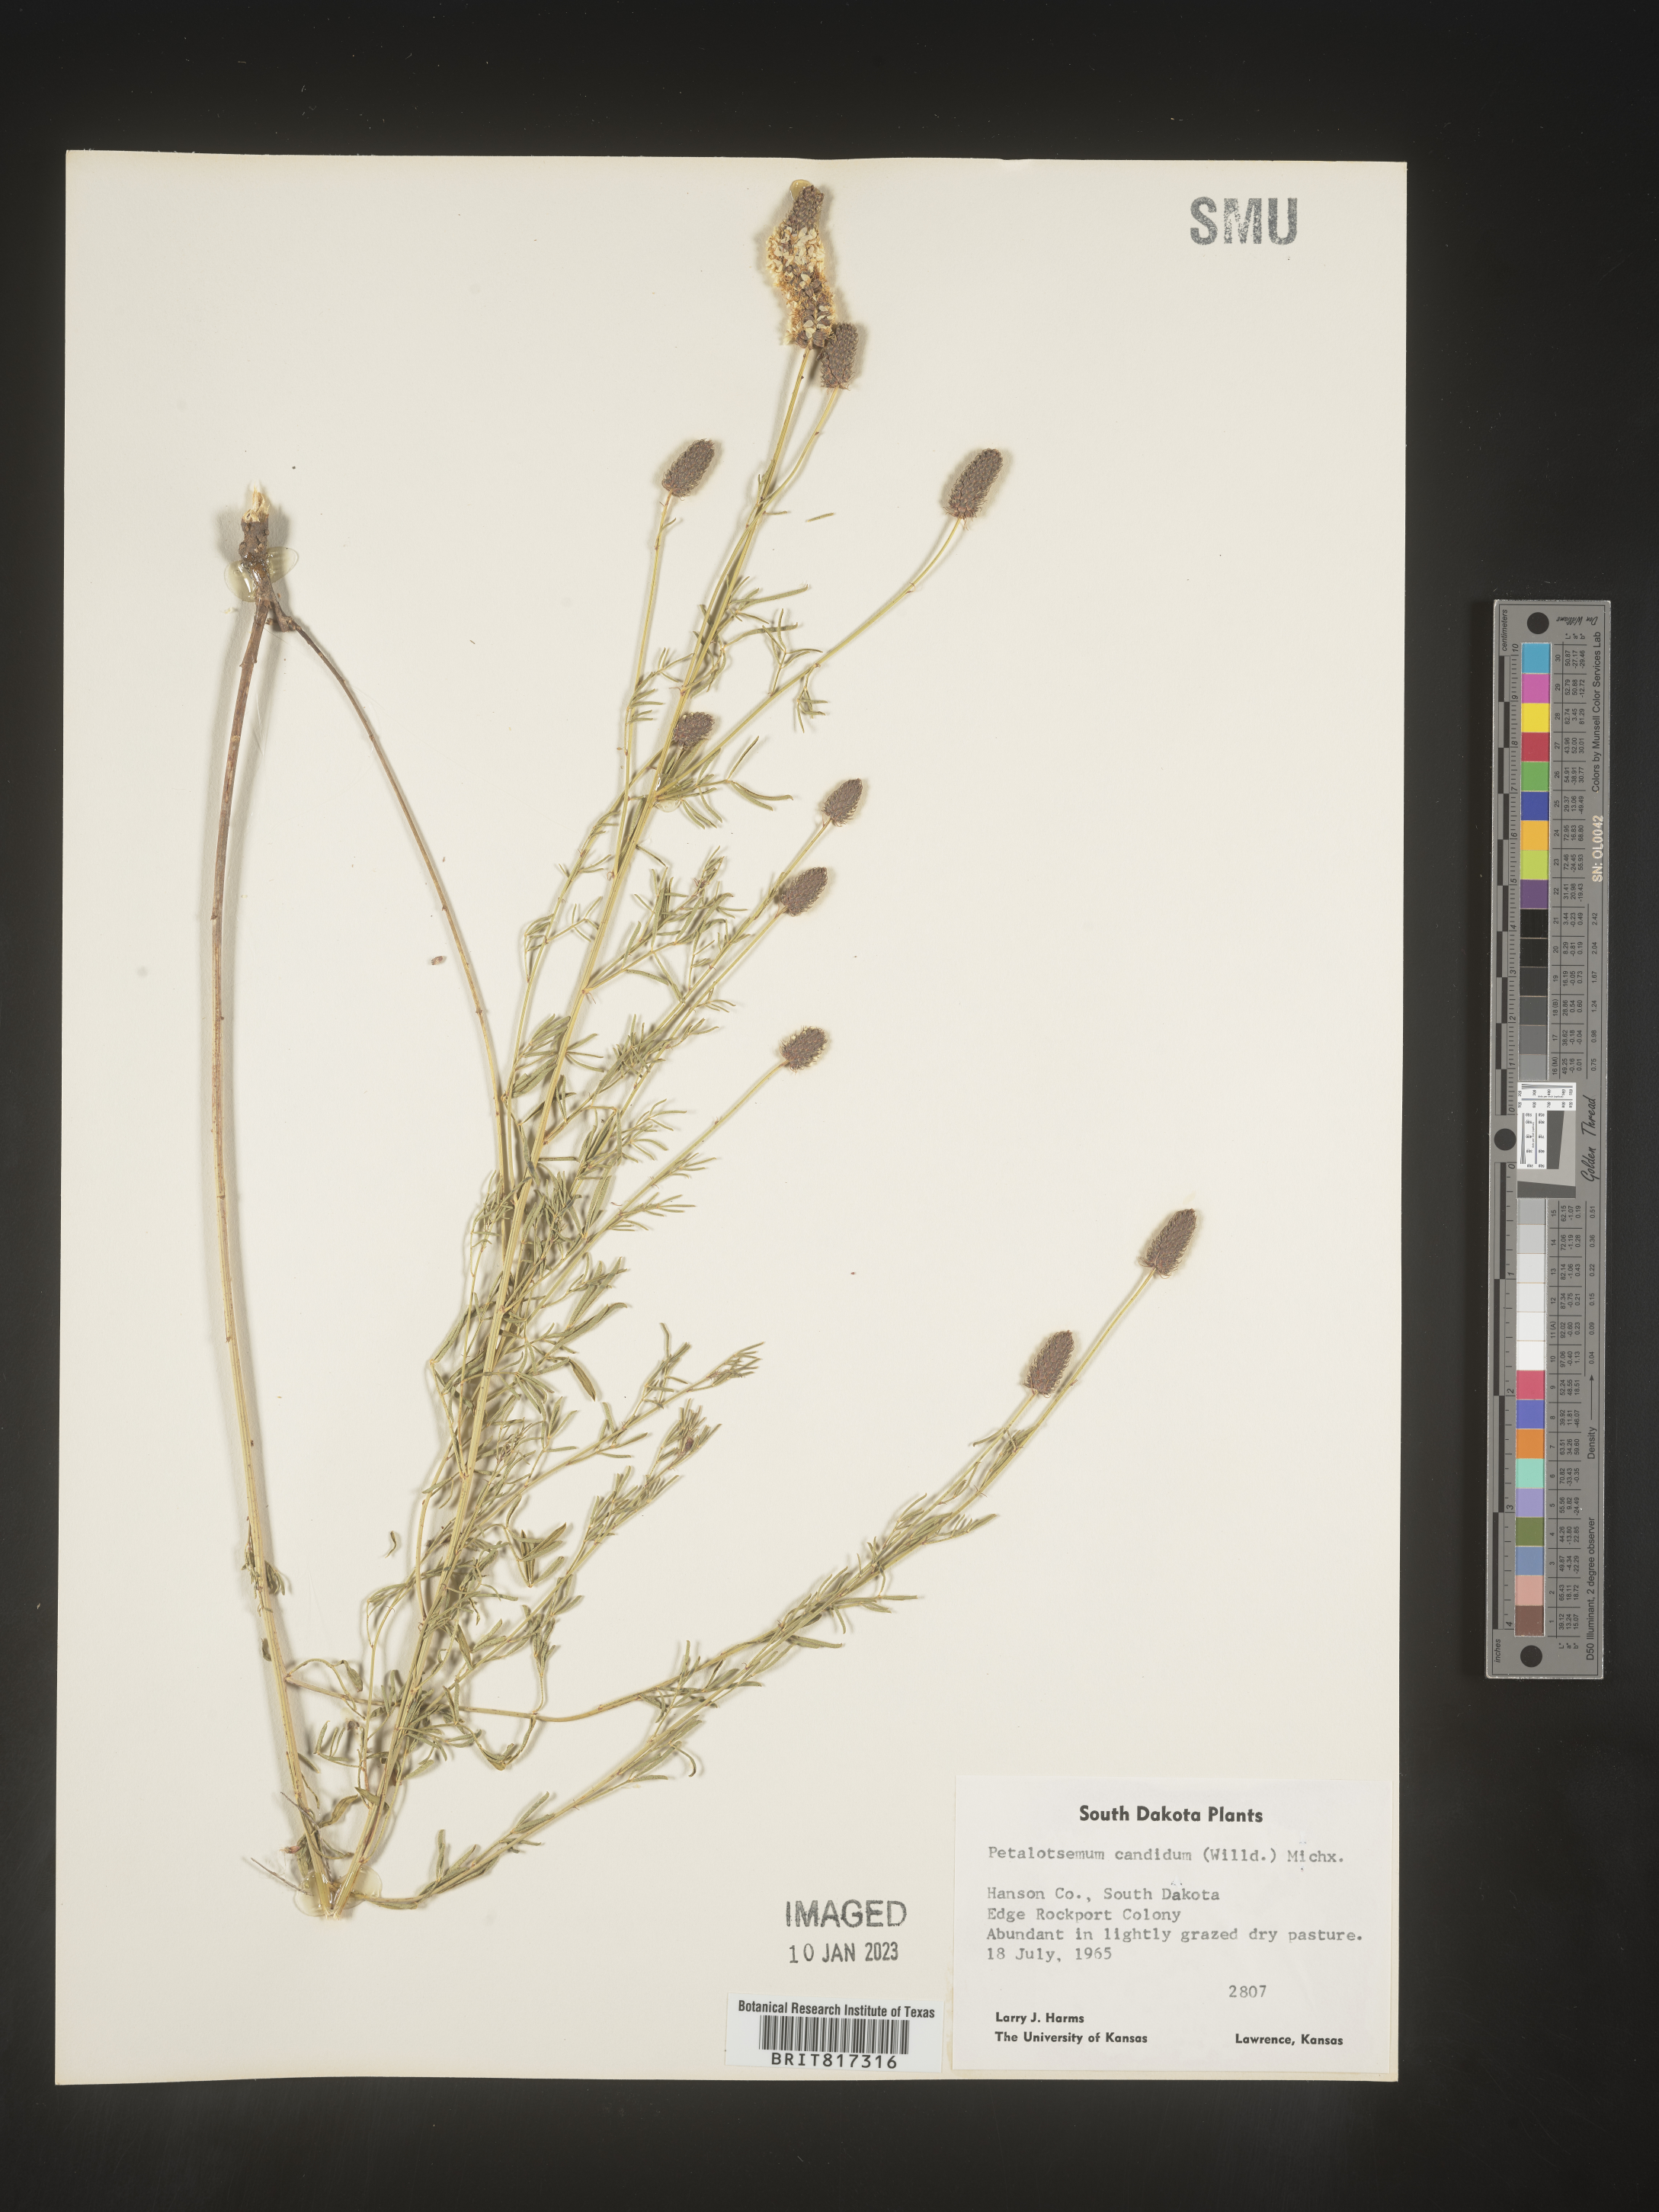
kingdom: Plantae
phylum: Tracheophyta
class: Magnoliopsida
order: Fabales
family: Fabaceae
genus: Dalea
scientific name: Dalea candida
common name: White prairie-clover
